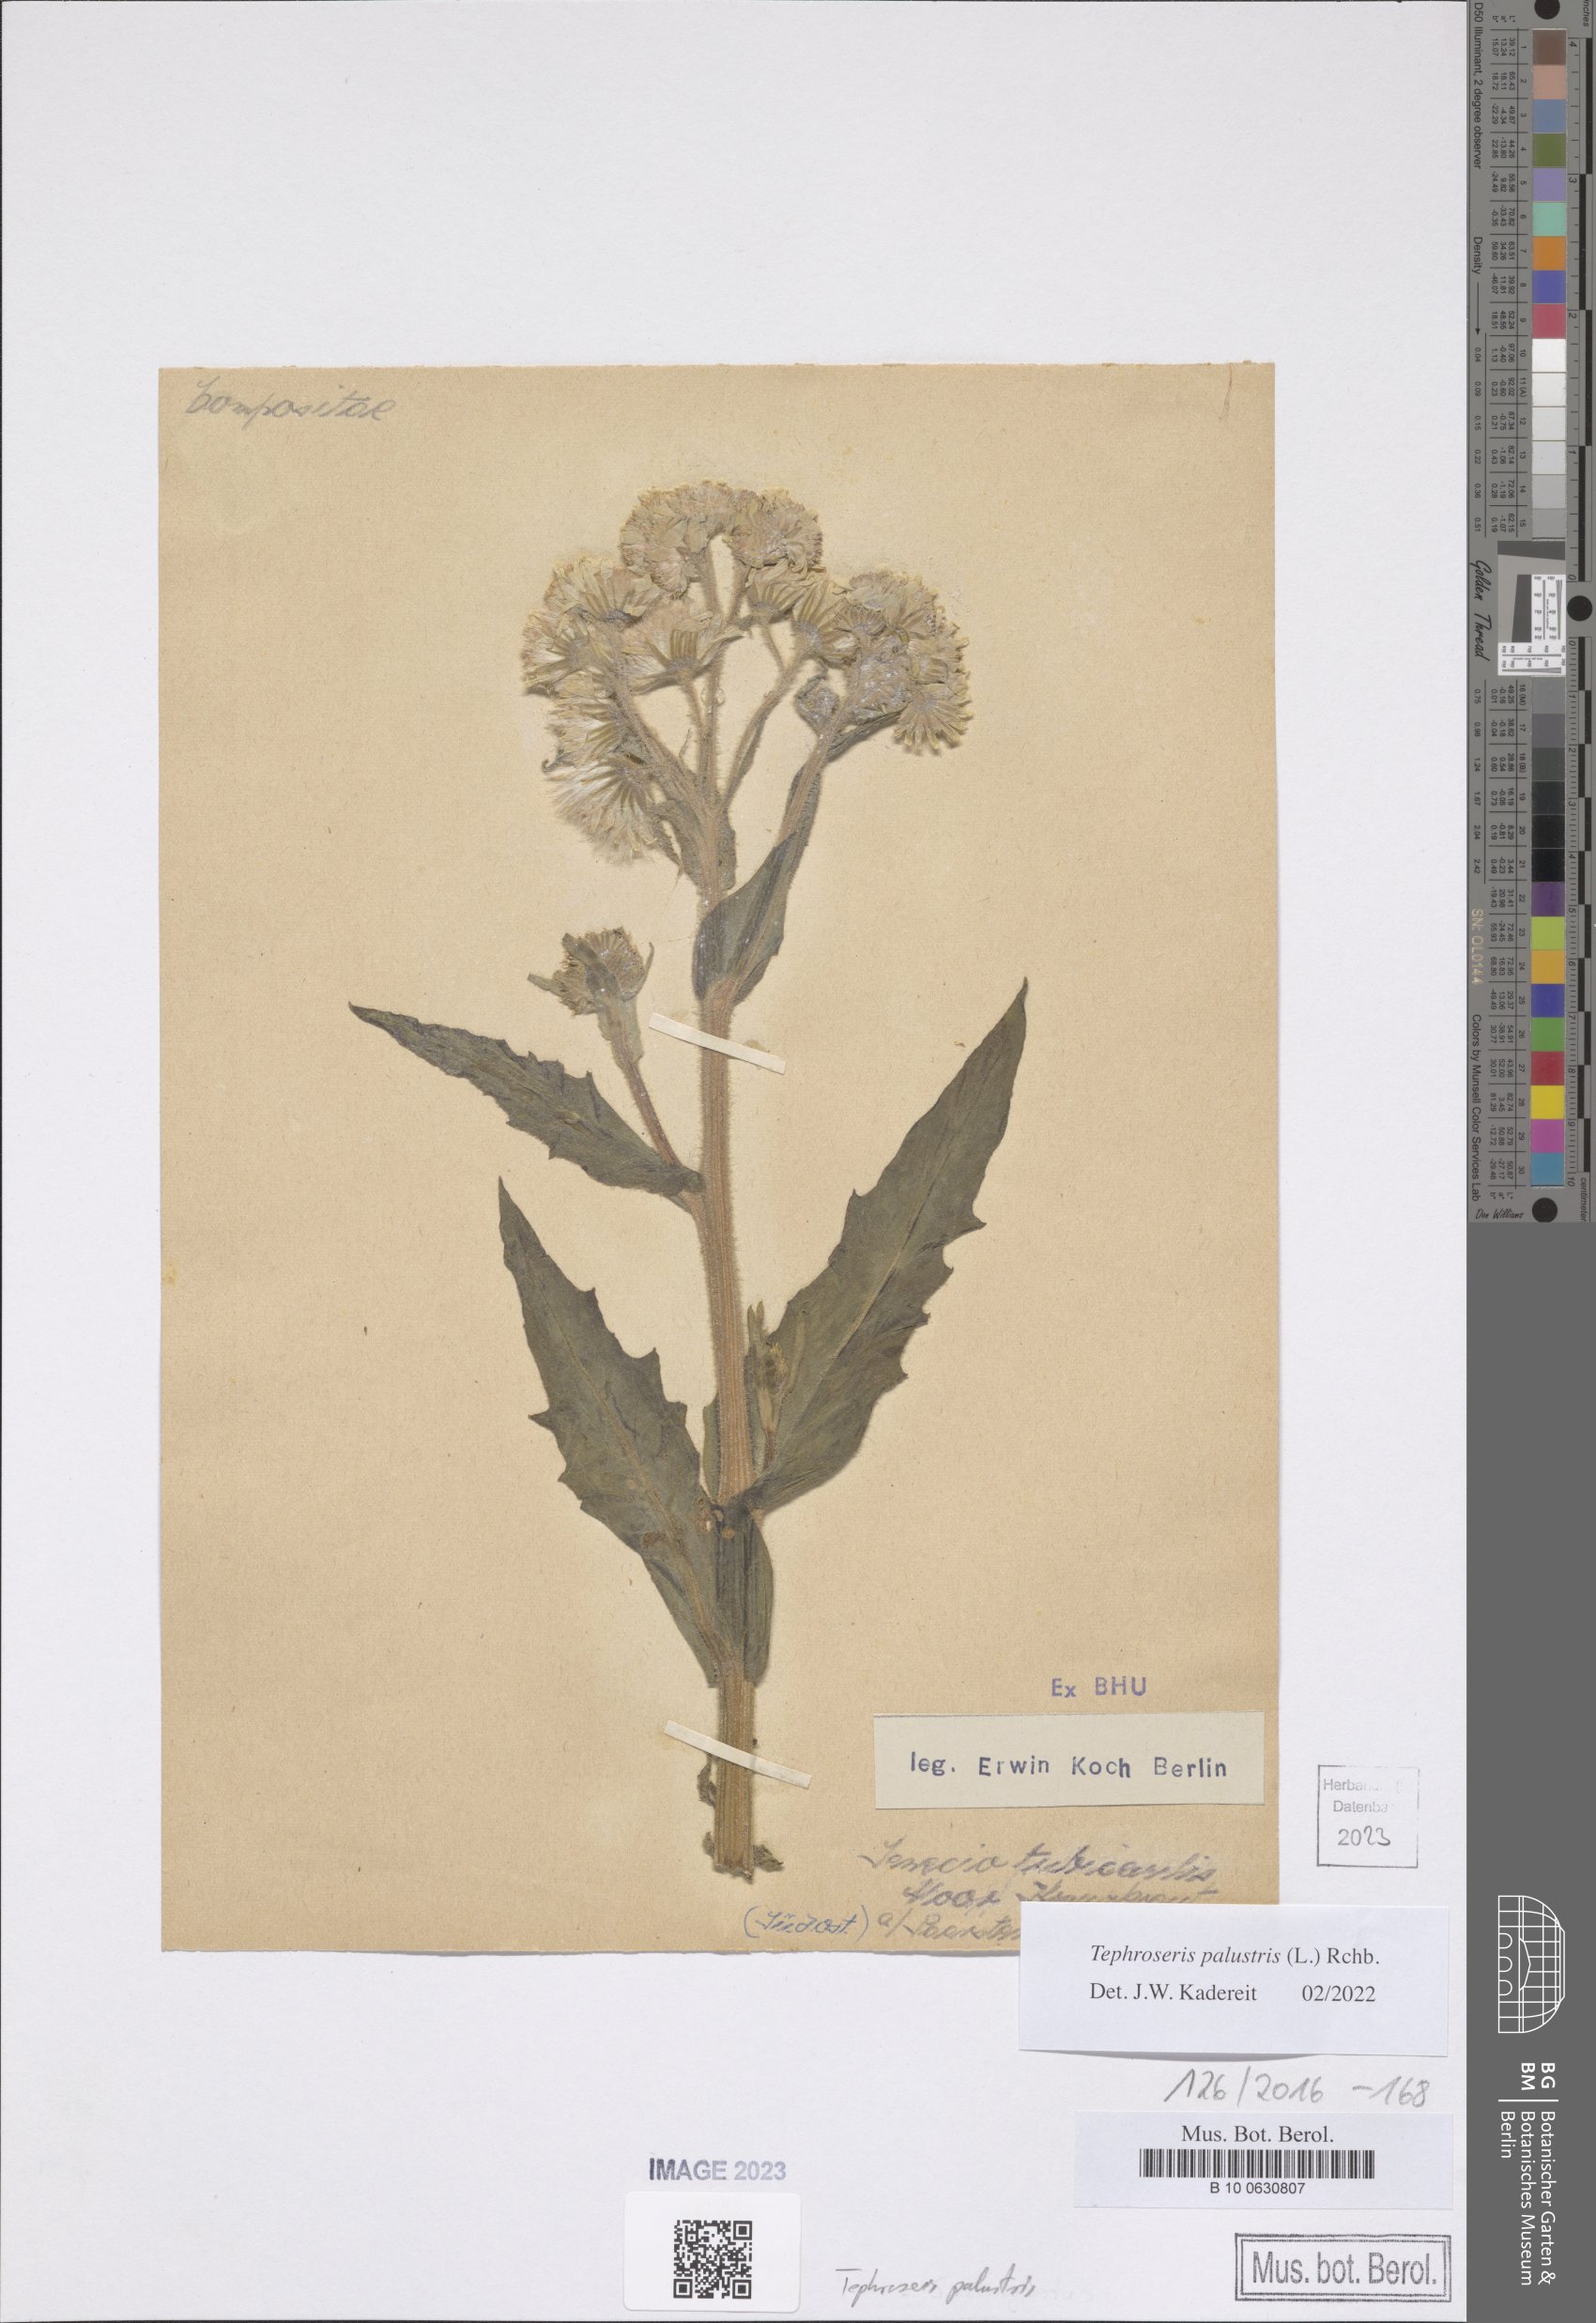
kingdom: Plantae
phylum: Tracheophyta
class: Magnoliopsida
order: Asterales
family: Asteraceae
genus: Tephroseris
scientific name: Tephroseris palustris
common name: Marsh fleawort
